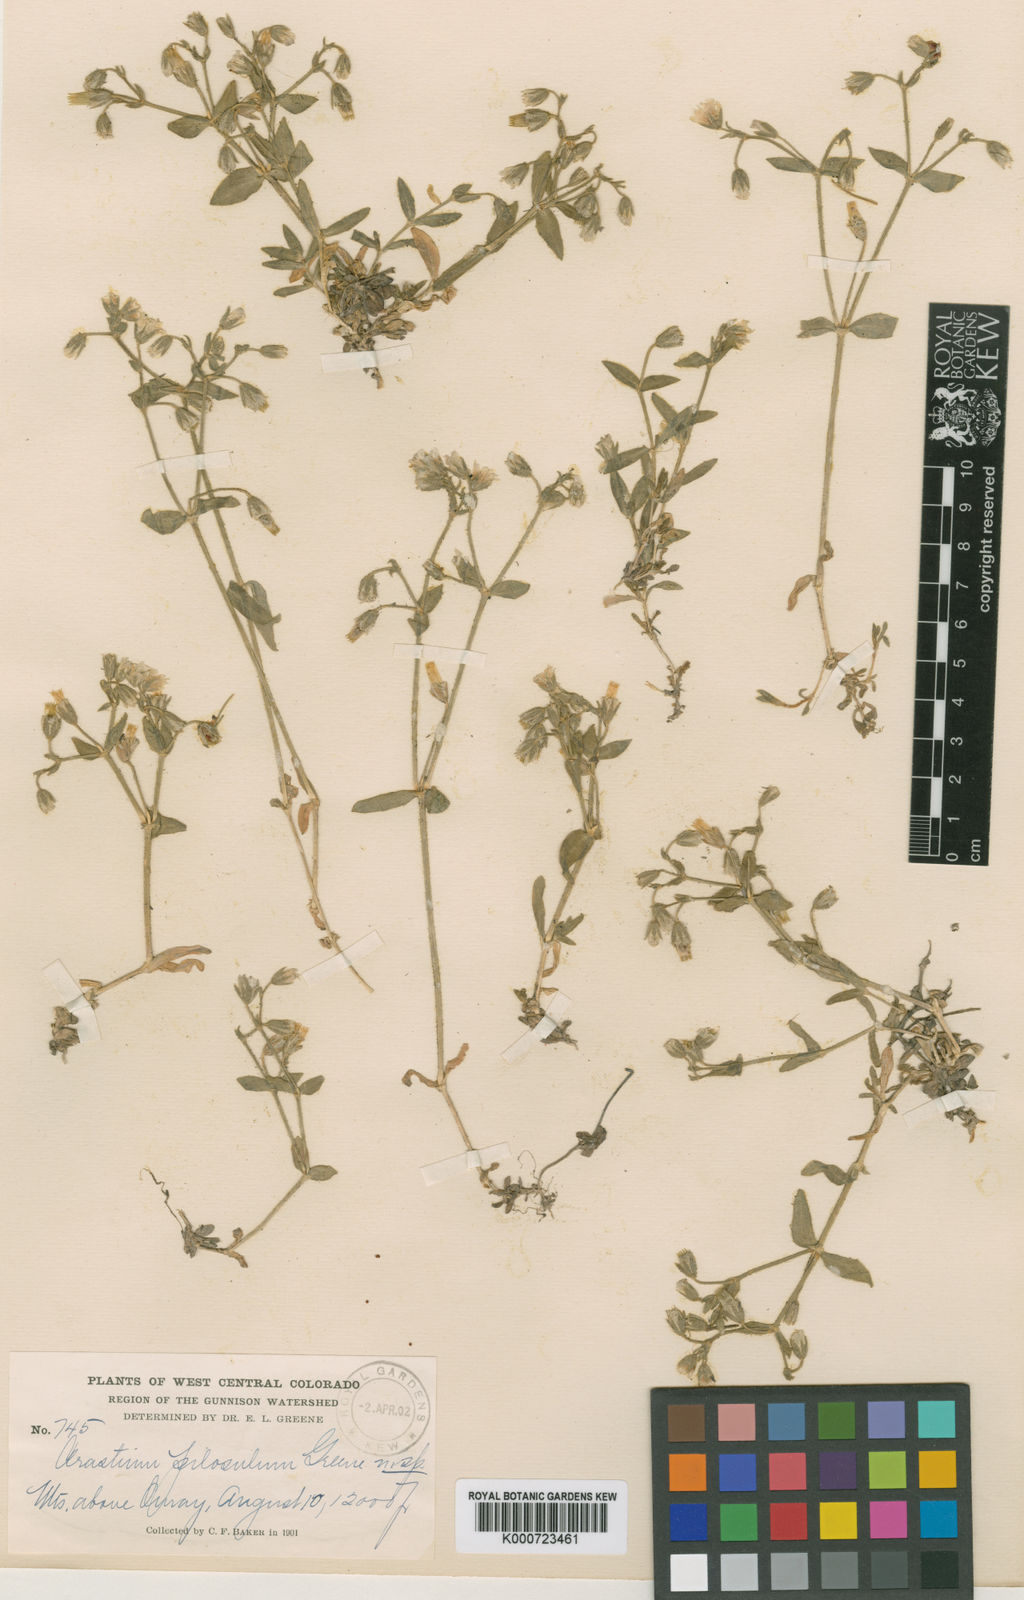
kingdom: Plantae
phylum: Tracheophyta
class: Magnoliopsida
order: Caryophyllales
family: Caryophyllaceae
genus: Cerastium
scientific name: Cerastium
